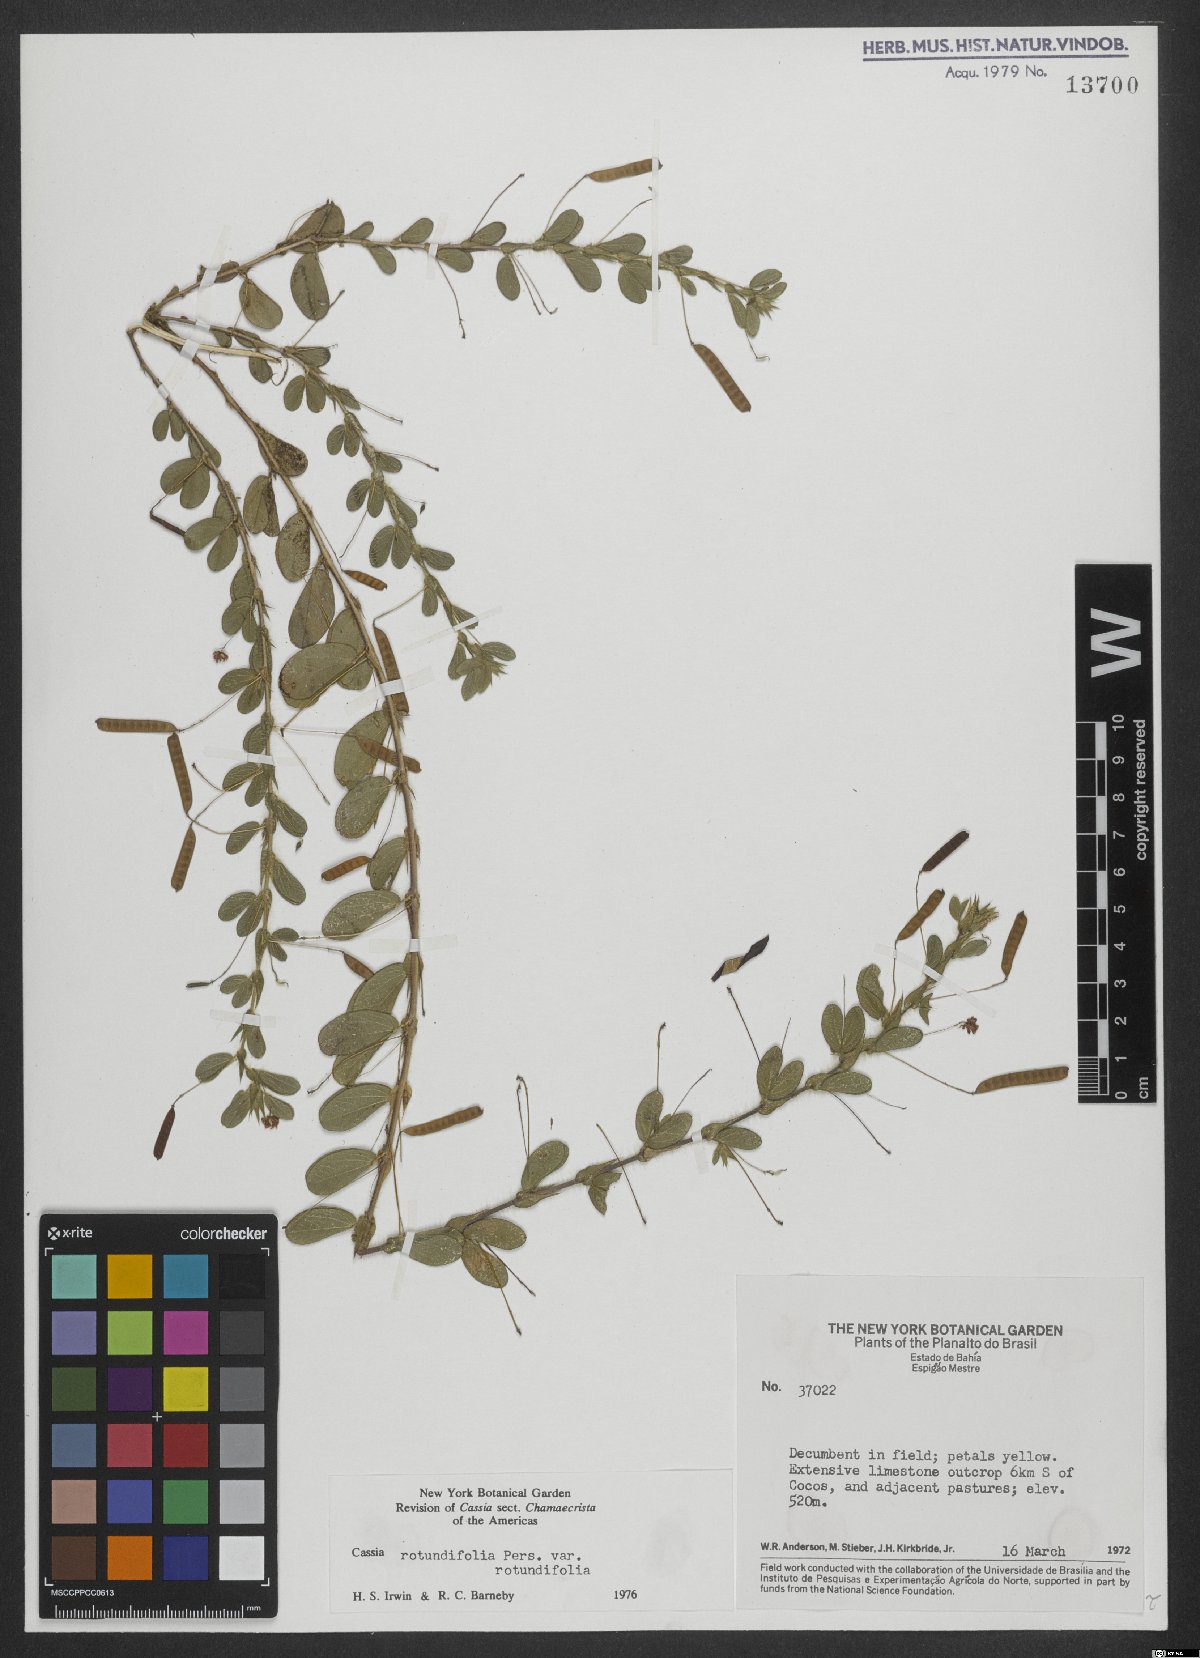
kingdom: Plantae
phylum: Tracheophyta
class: Magnoliopsida
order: Fabales
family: Fabaceae
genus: Chamaecrista
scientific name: Chamaecrista rotundifolia
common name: Round-leaf cassia
